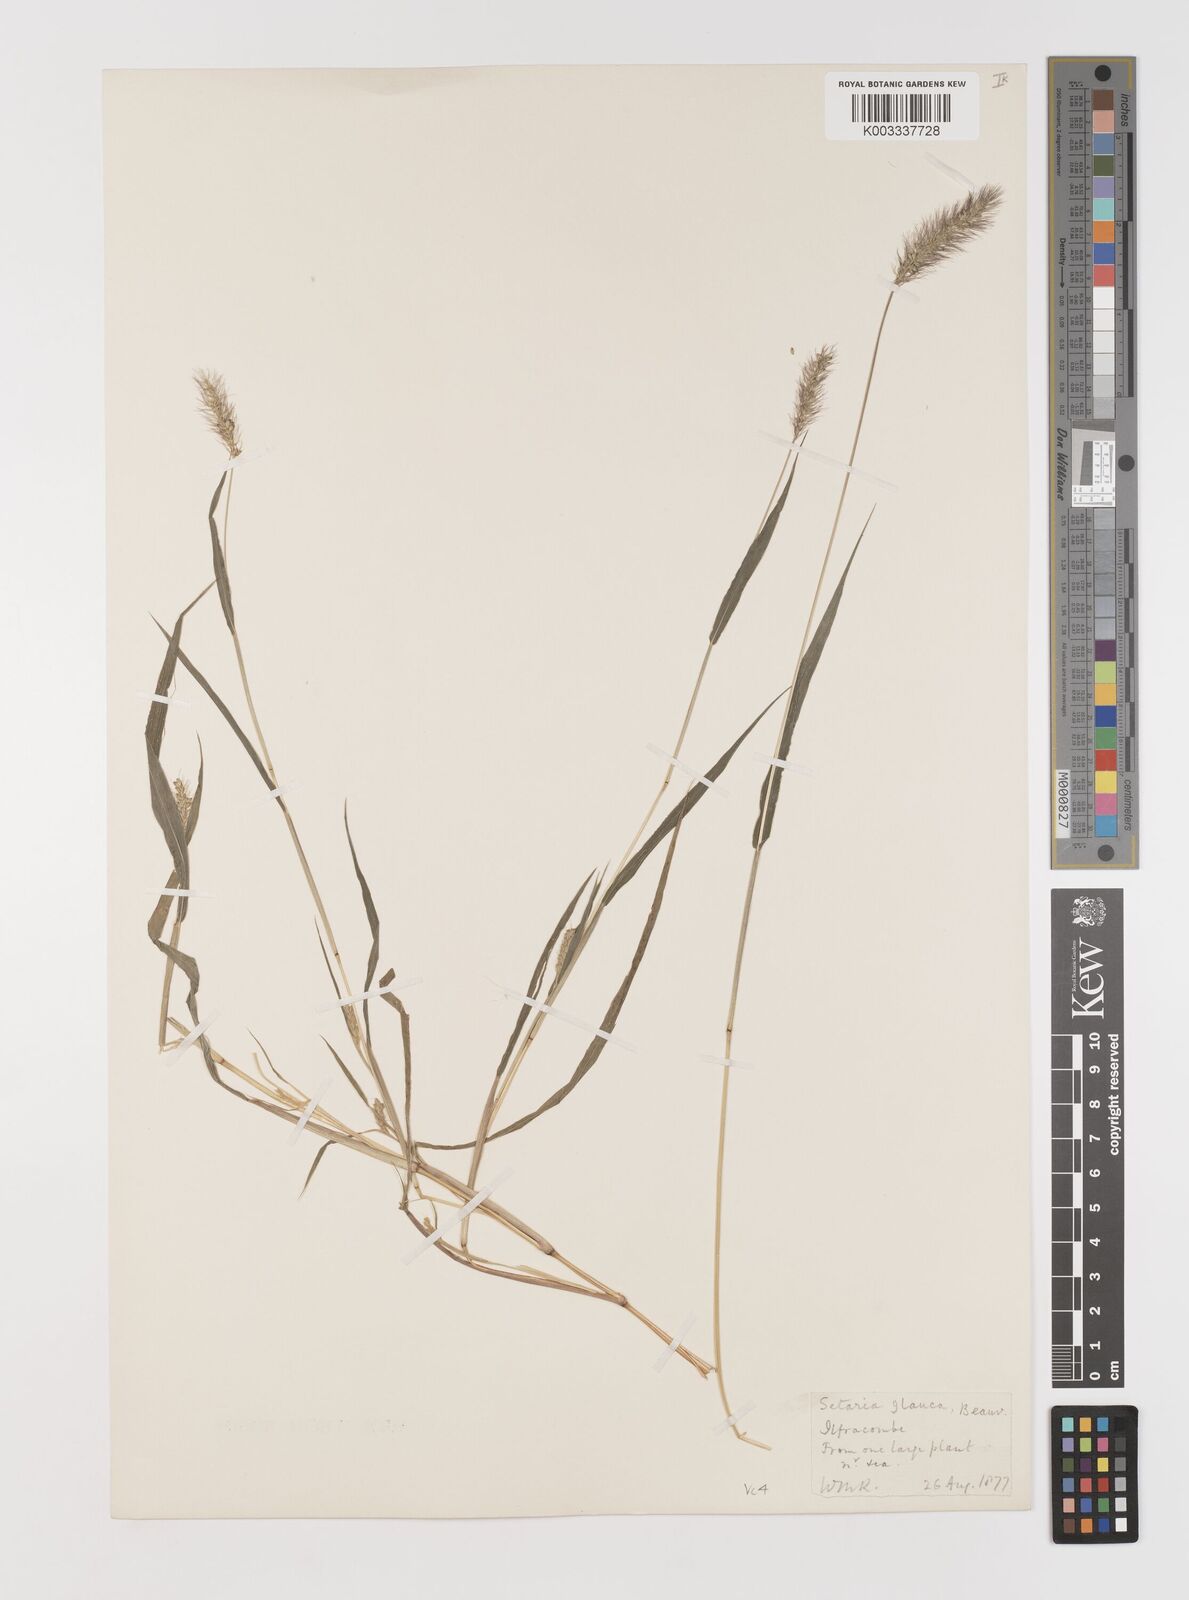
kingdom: Plantae
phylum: Tracheophyta
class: Liliopsida
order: Poales
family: Poaceae
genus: Setaria
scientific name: Setaria viridis
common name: Green bristlegrass
